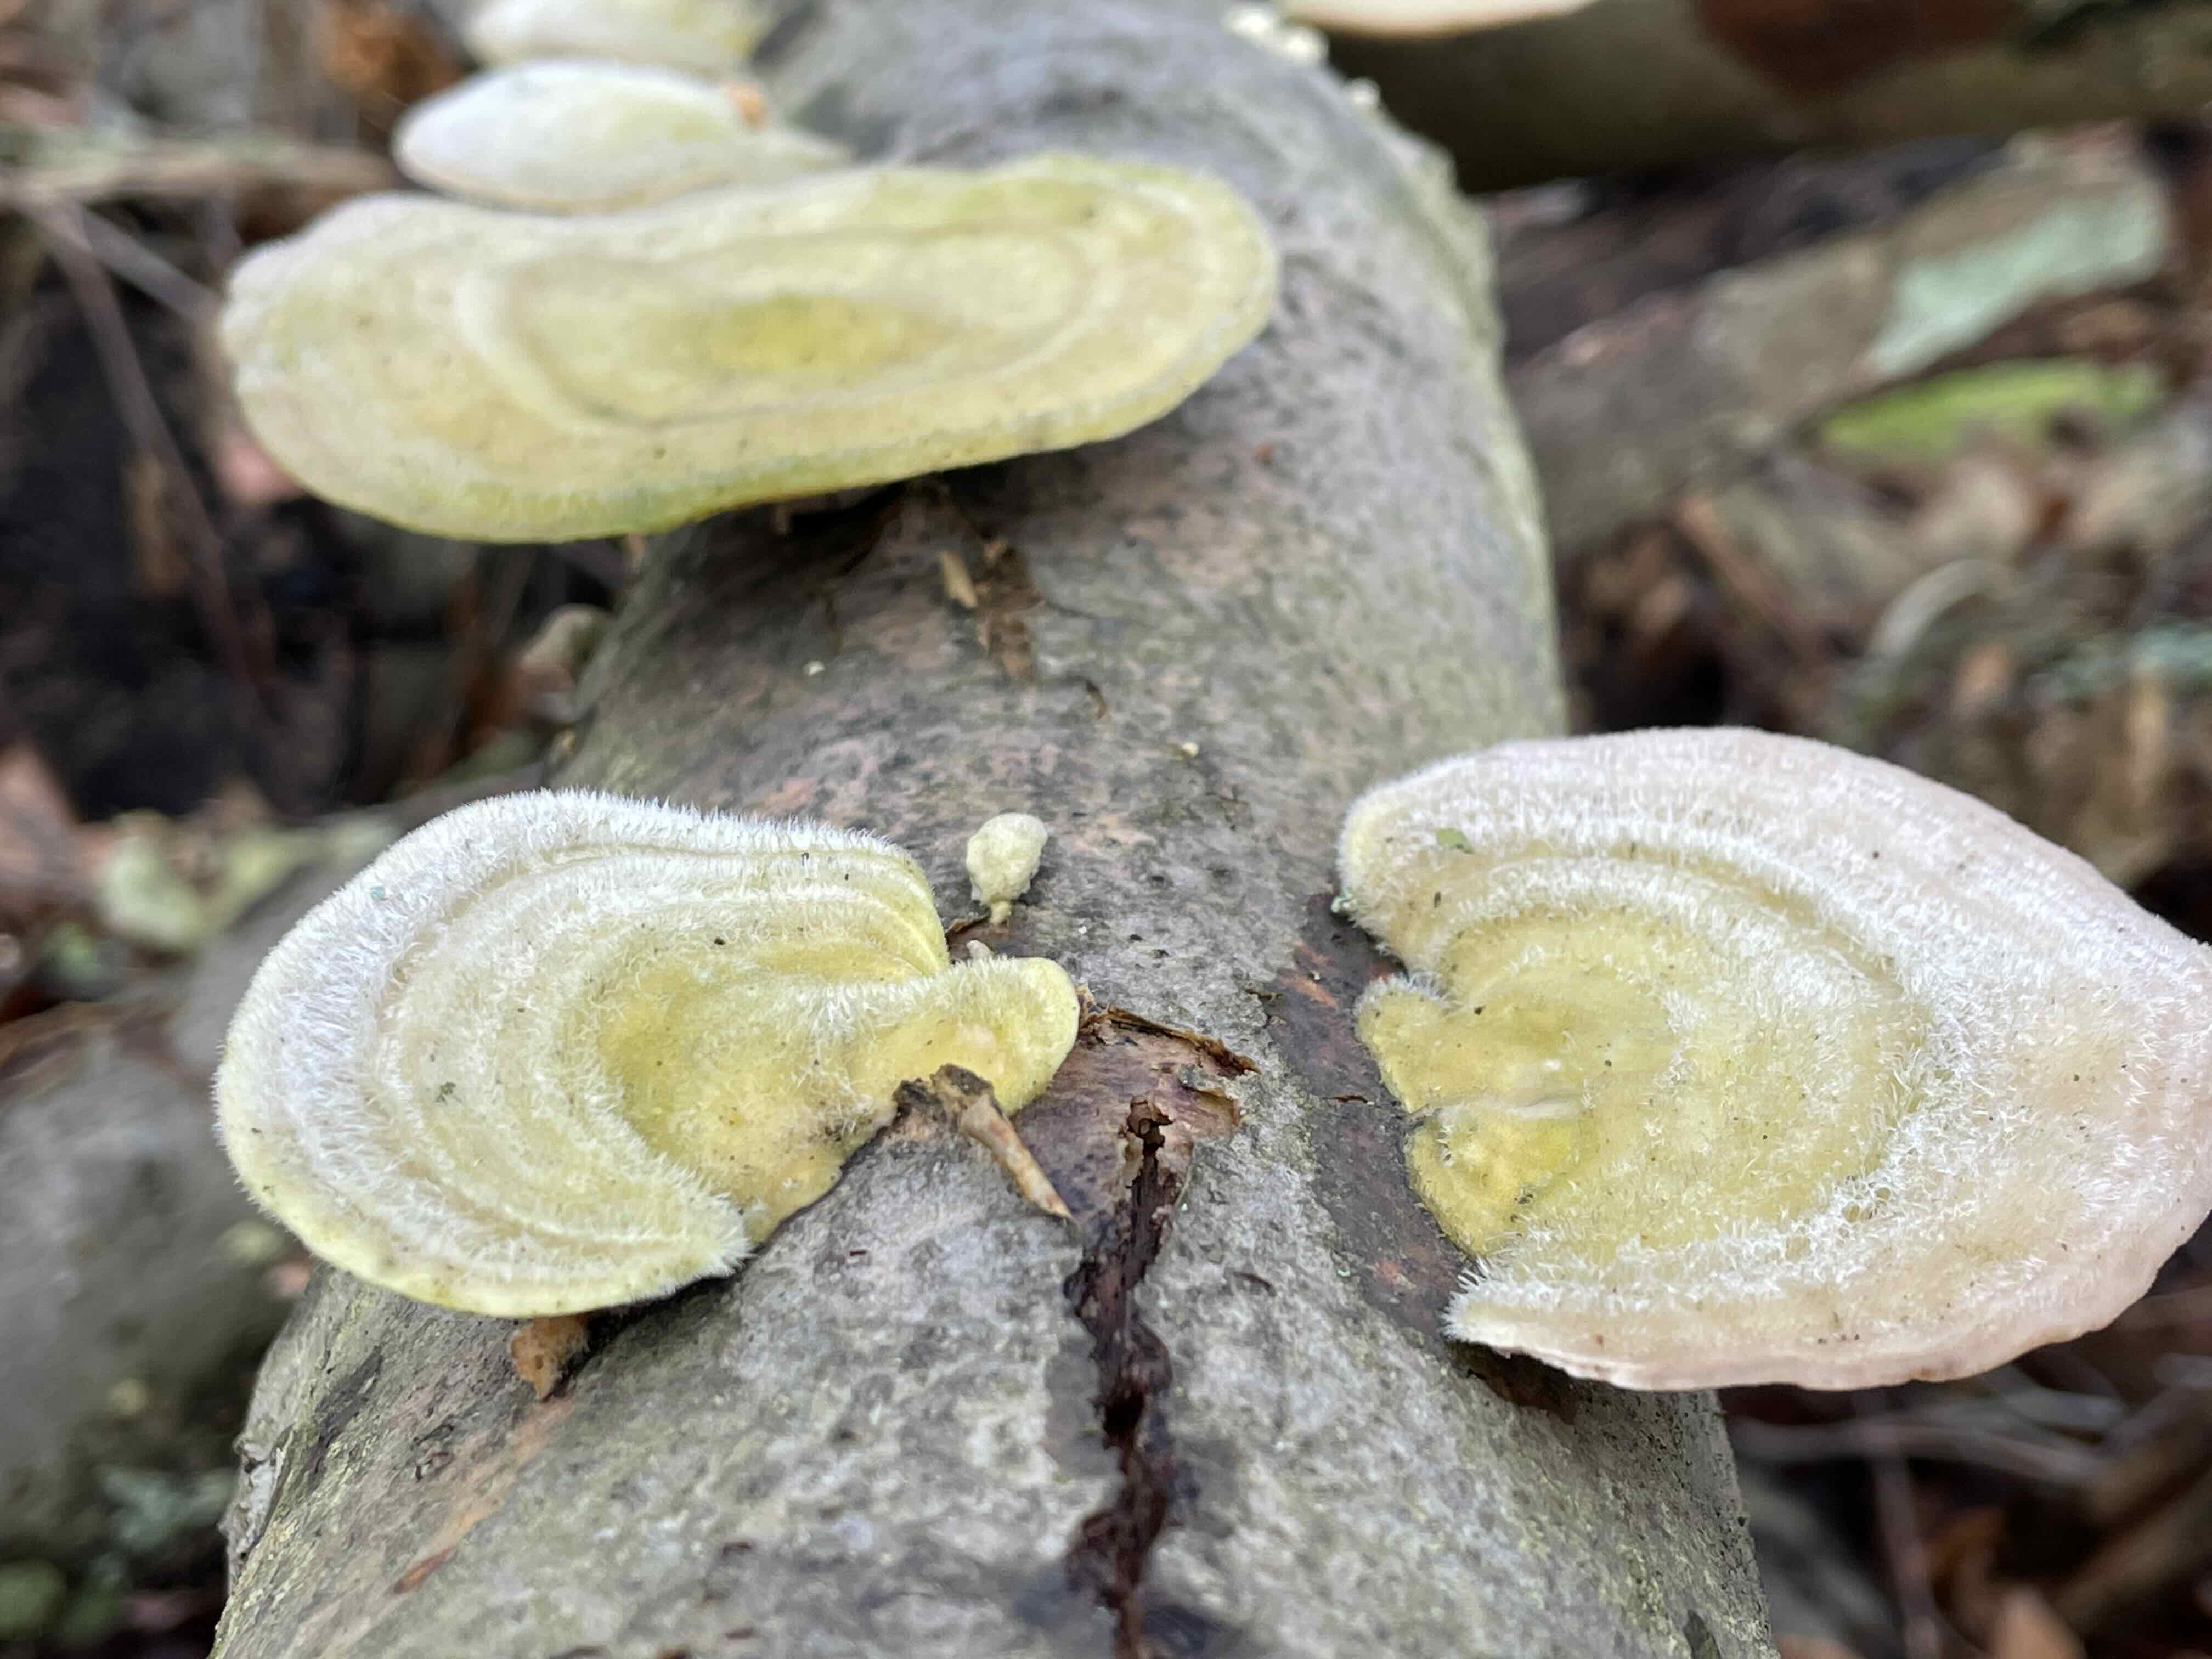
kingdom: Fungi
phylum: Basidiomycota
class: Agaricomycetes
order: Polyporales
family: Polyporaceae
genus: Trametes
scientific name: Trametes hirsuta
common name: håret læderporesvamp
